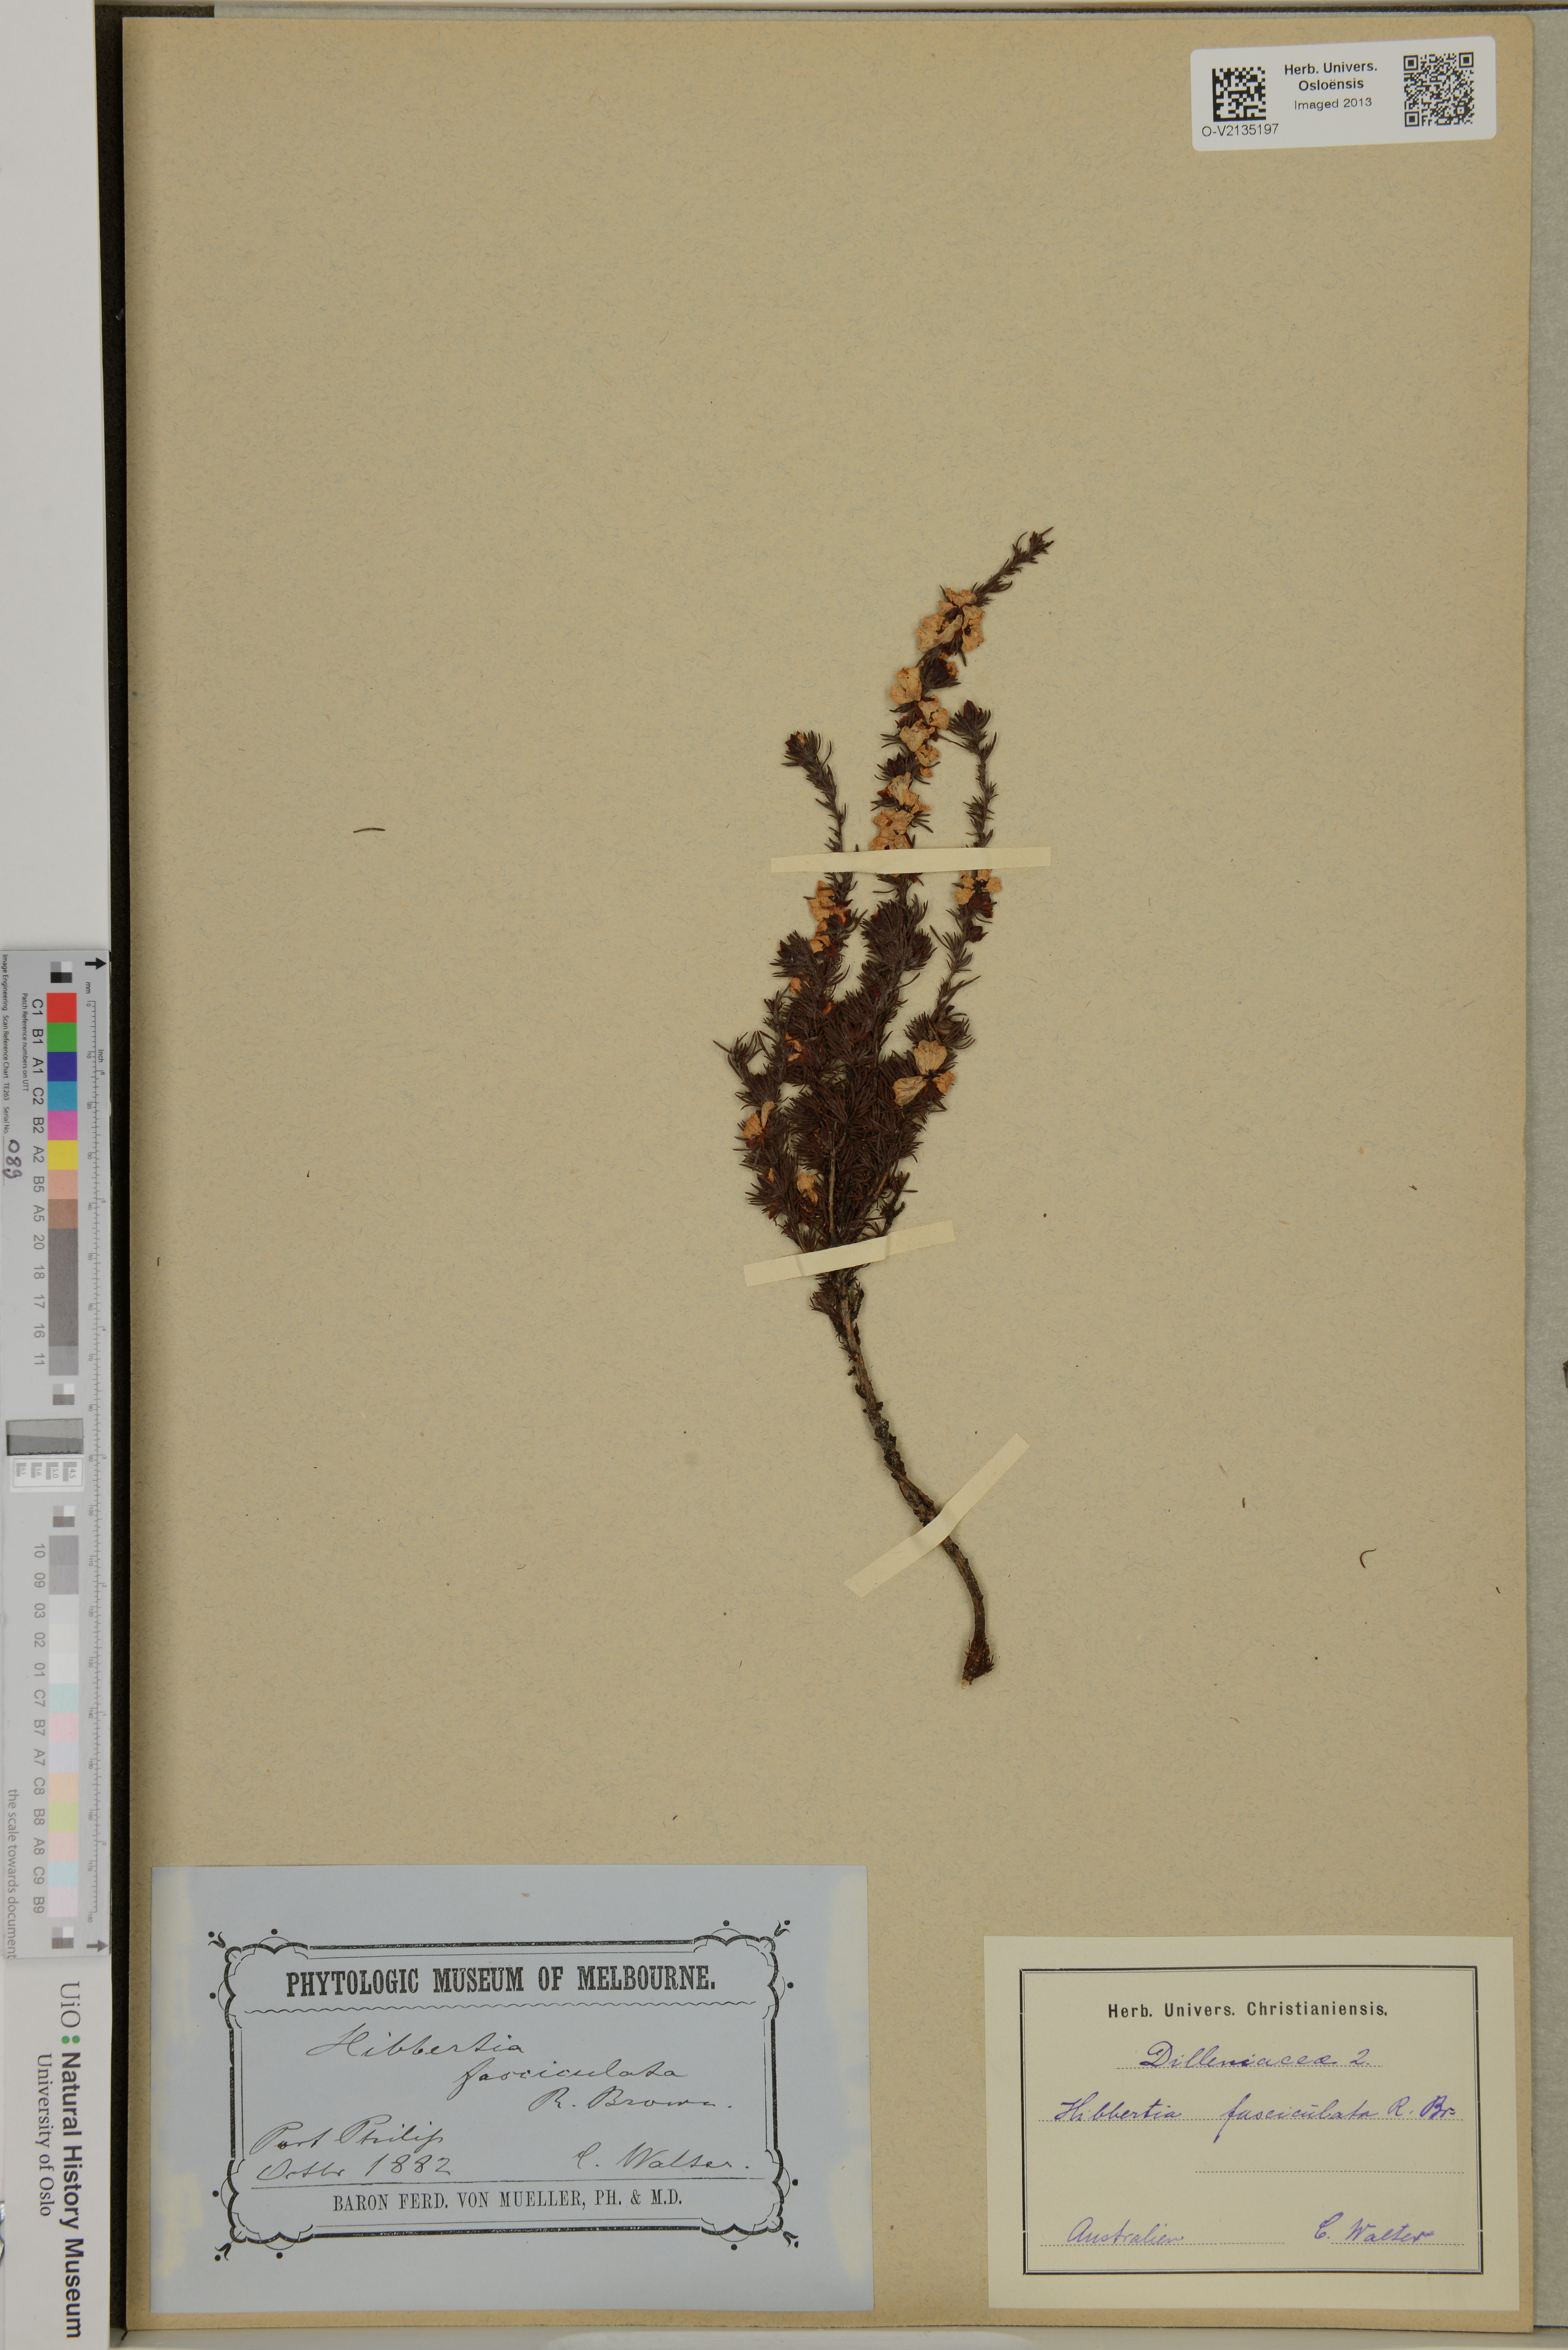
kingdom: Plantae
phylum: Tracheophyta
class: Magnoliopsida
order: Dilleniales
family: Dilleniaceae
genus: Hibbertia
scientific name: Hibbertia fasciculata
